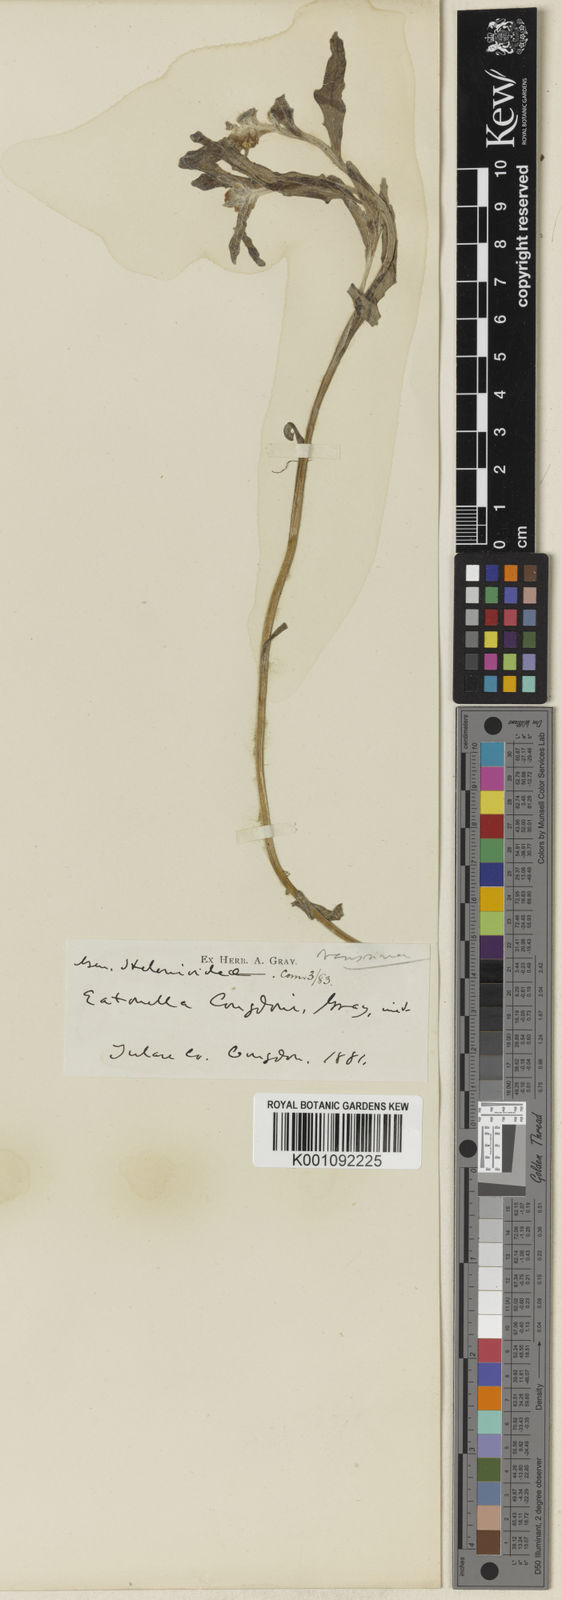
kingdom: Plantae
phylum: Tracheophyta
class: Magnoliopsida
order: Asterales
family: Asteraceae
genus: Monolopia
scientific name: Monolopia congdonii
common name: San joaquin woolly-threads
